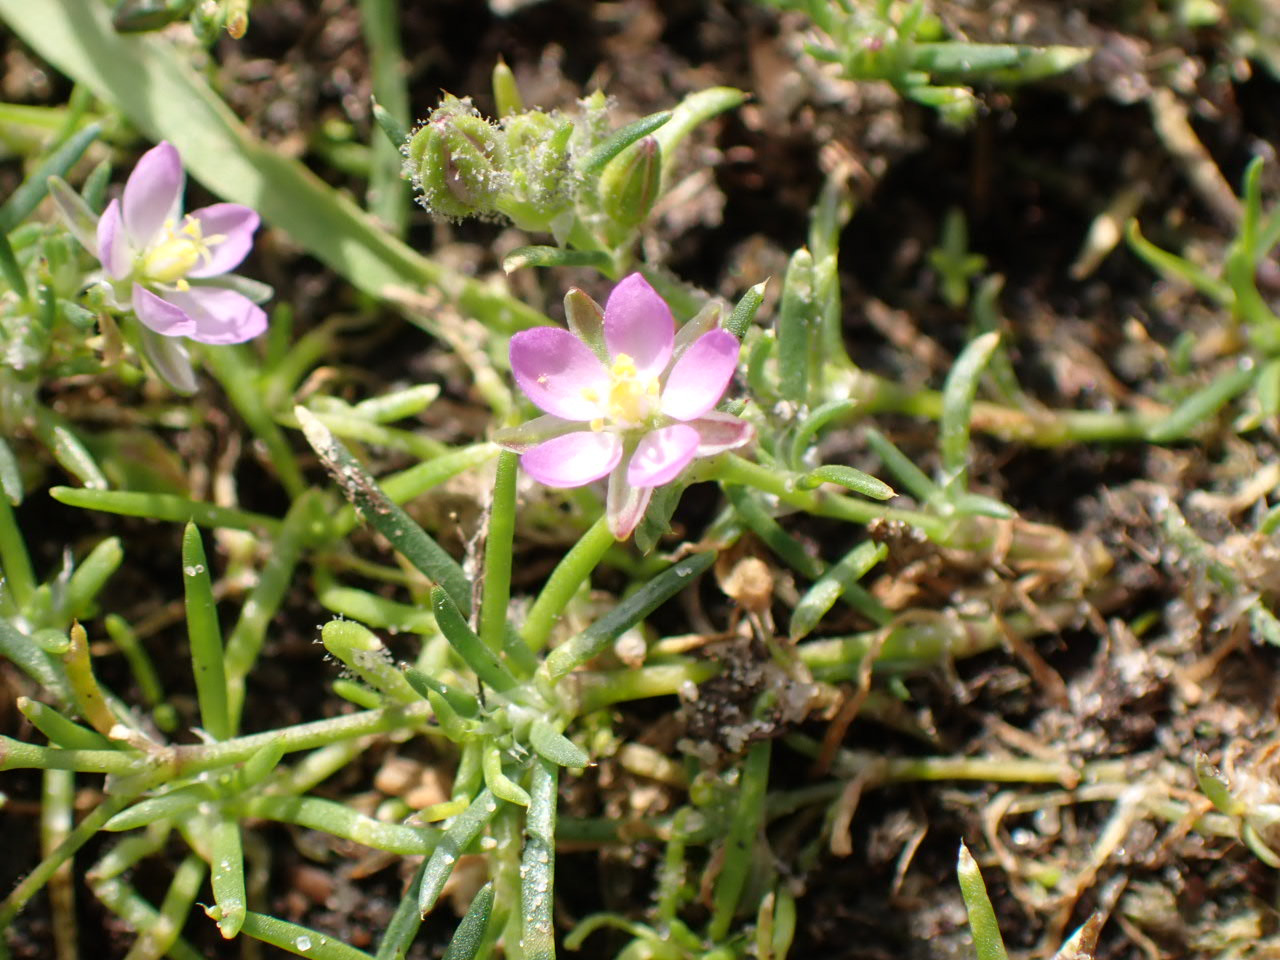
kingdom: Plantae
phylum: Tracheophyta
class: Magnoliopsida
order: Caryophyllales
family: Caryophyllaceae
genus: Spergularia
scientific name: Spergularia rubra
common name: Mark-hindeknæ
